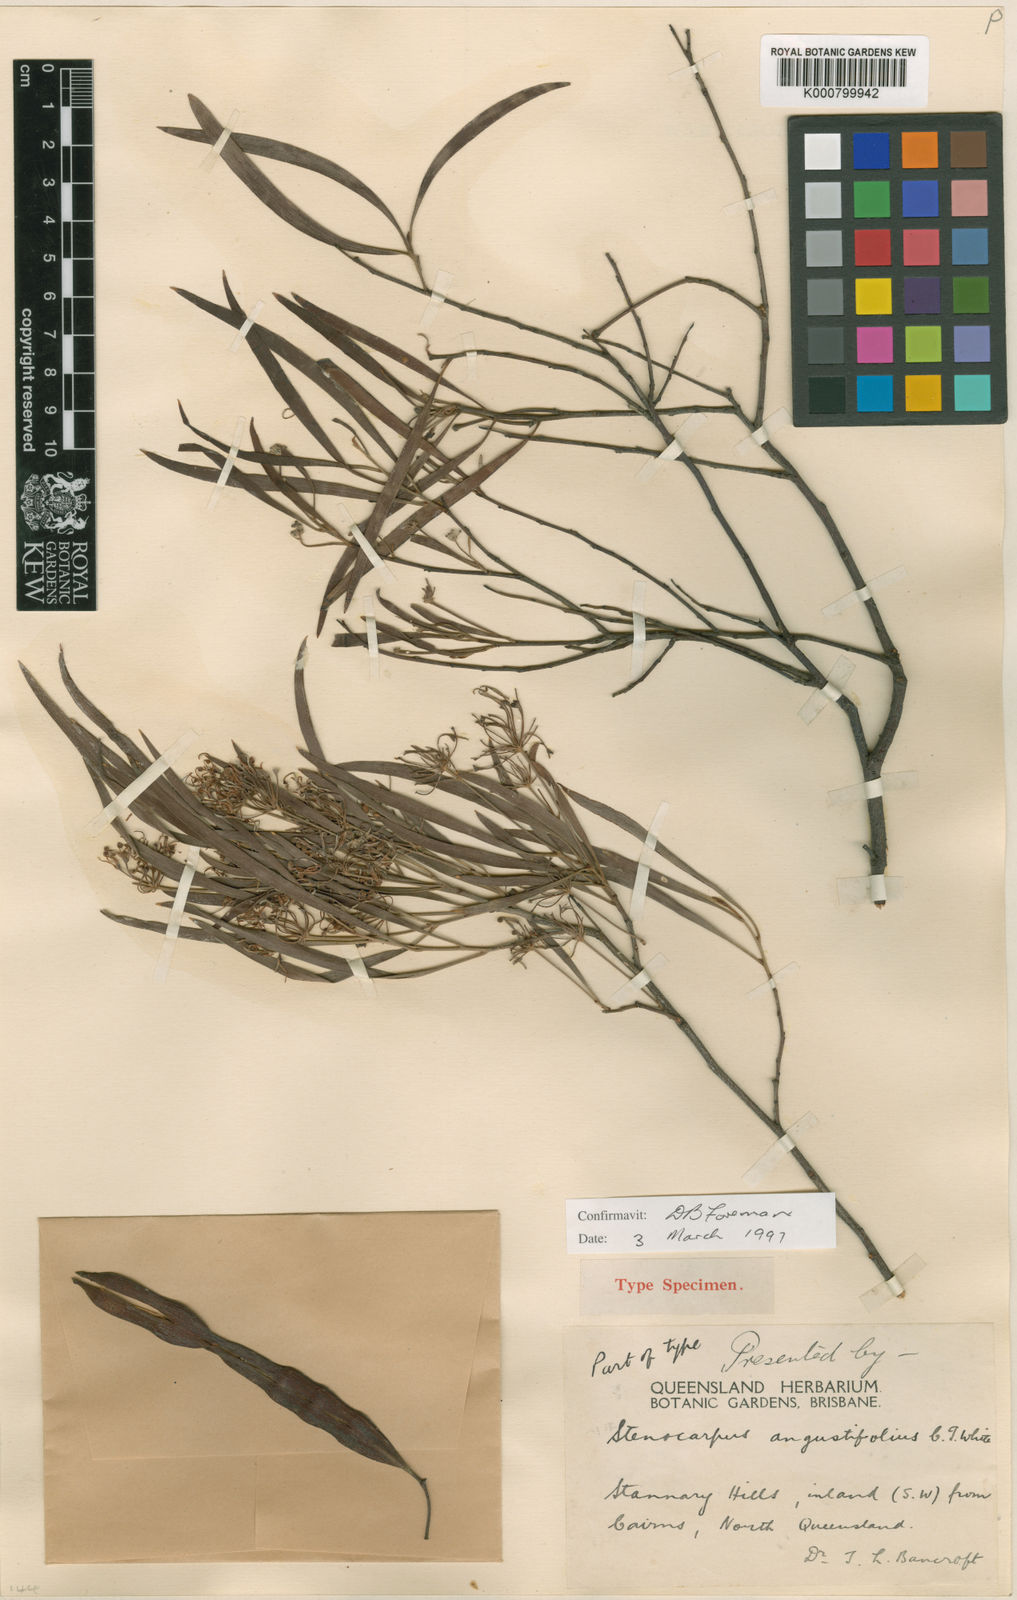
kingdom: Plantae
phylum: Tracheophyta
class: Magnoliopsida
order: Proteales
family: Proteaceae
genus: Stenocarpus
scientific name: Stenocarpus angustifolius
